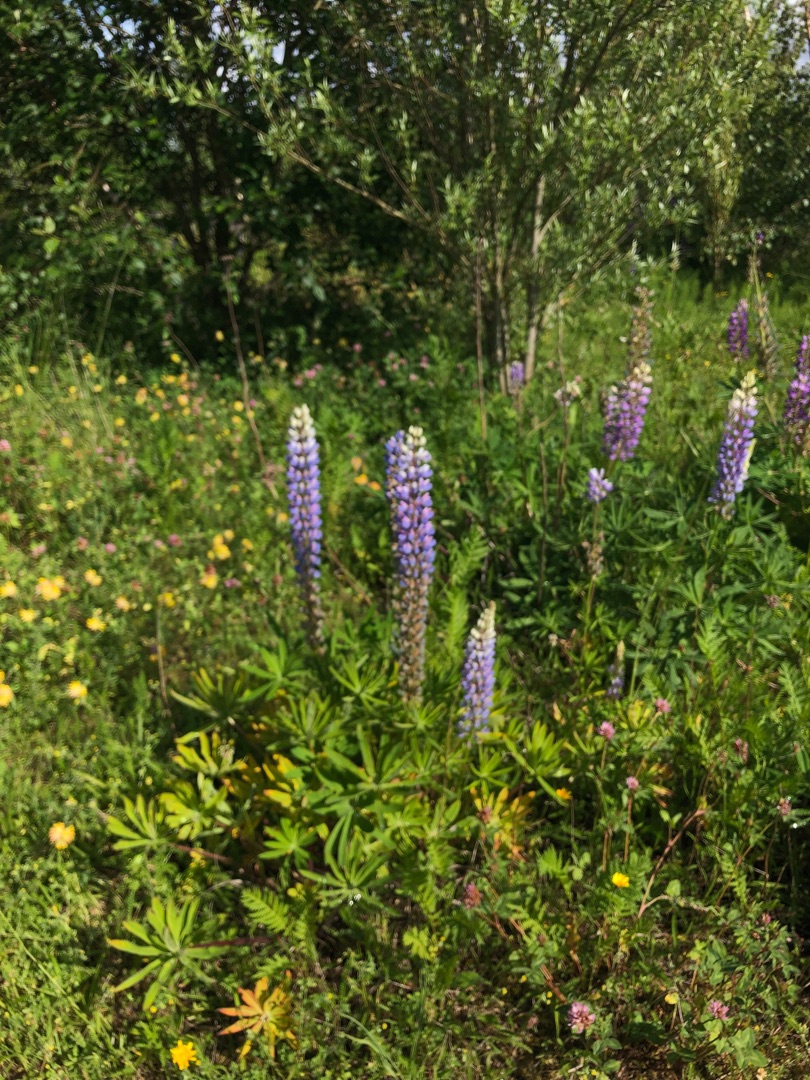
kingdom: Plantae
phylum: Tracheophyta
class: Magnoliopsida
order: Fabales
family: Fabaceae
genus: Lupinus
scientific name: Lupinus polyphyllus
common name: Mangebladet lupin
